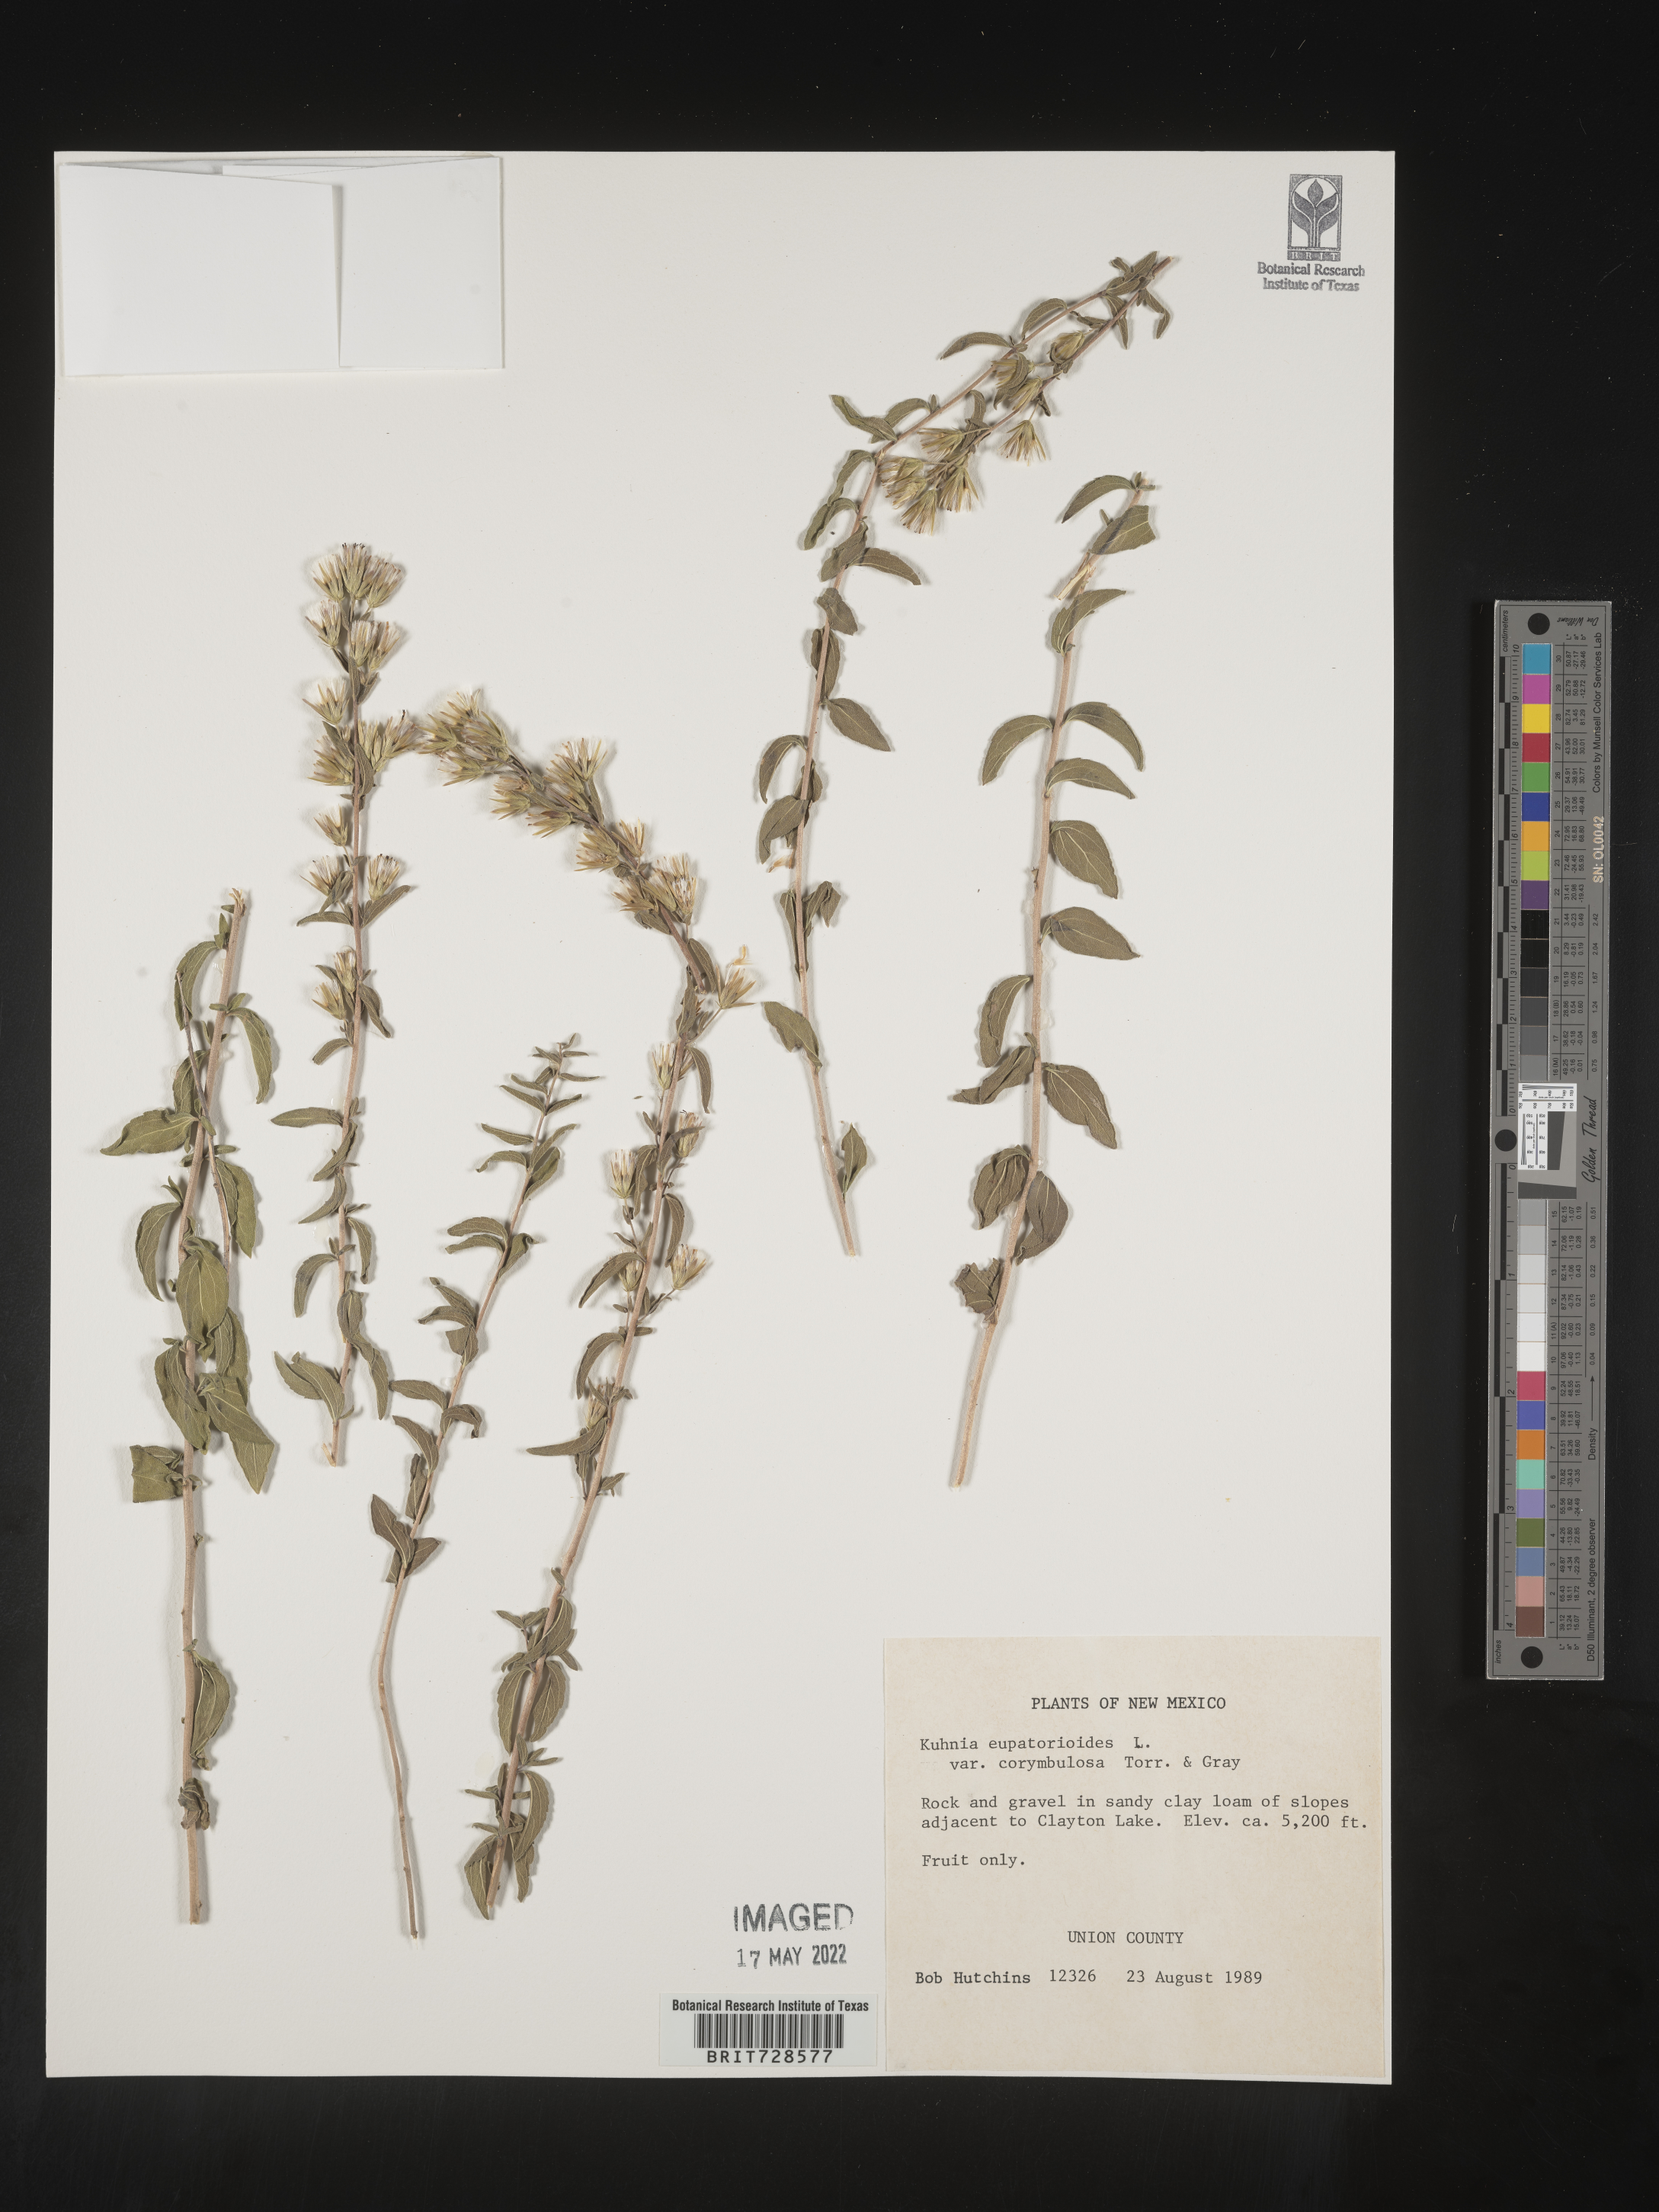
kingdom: Animalia
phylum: Platyhelminthes
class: Monogenea
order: Mazocraeidea
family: Mazocraeidae
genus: Kuhnia
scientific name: Kuhnia
